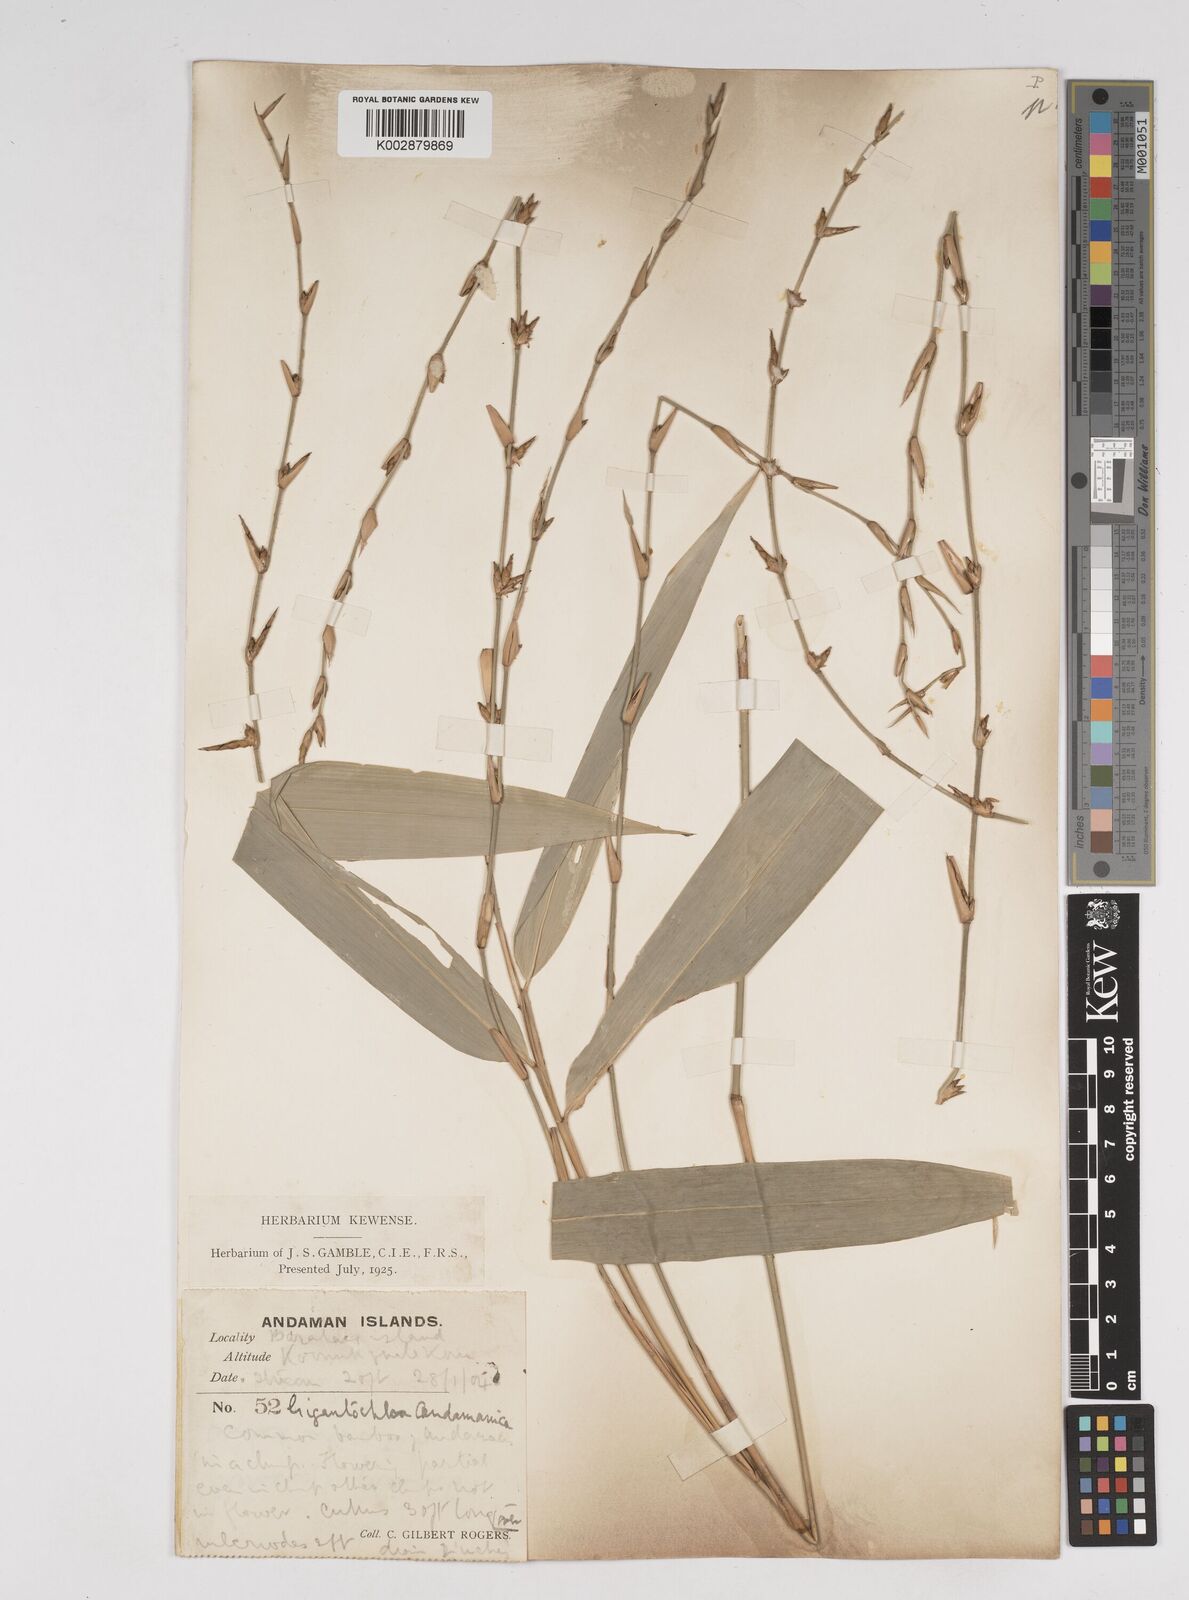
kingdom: Plantae
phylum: Tracheophyta
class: Liliopsida
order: Poales
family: Poaceae
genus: Gigantochloa
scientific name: Gigantochloa
